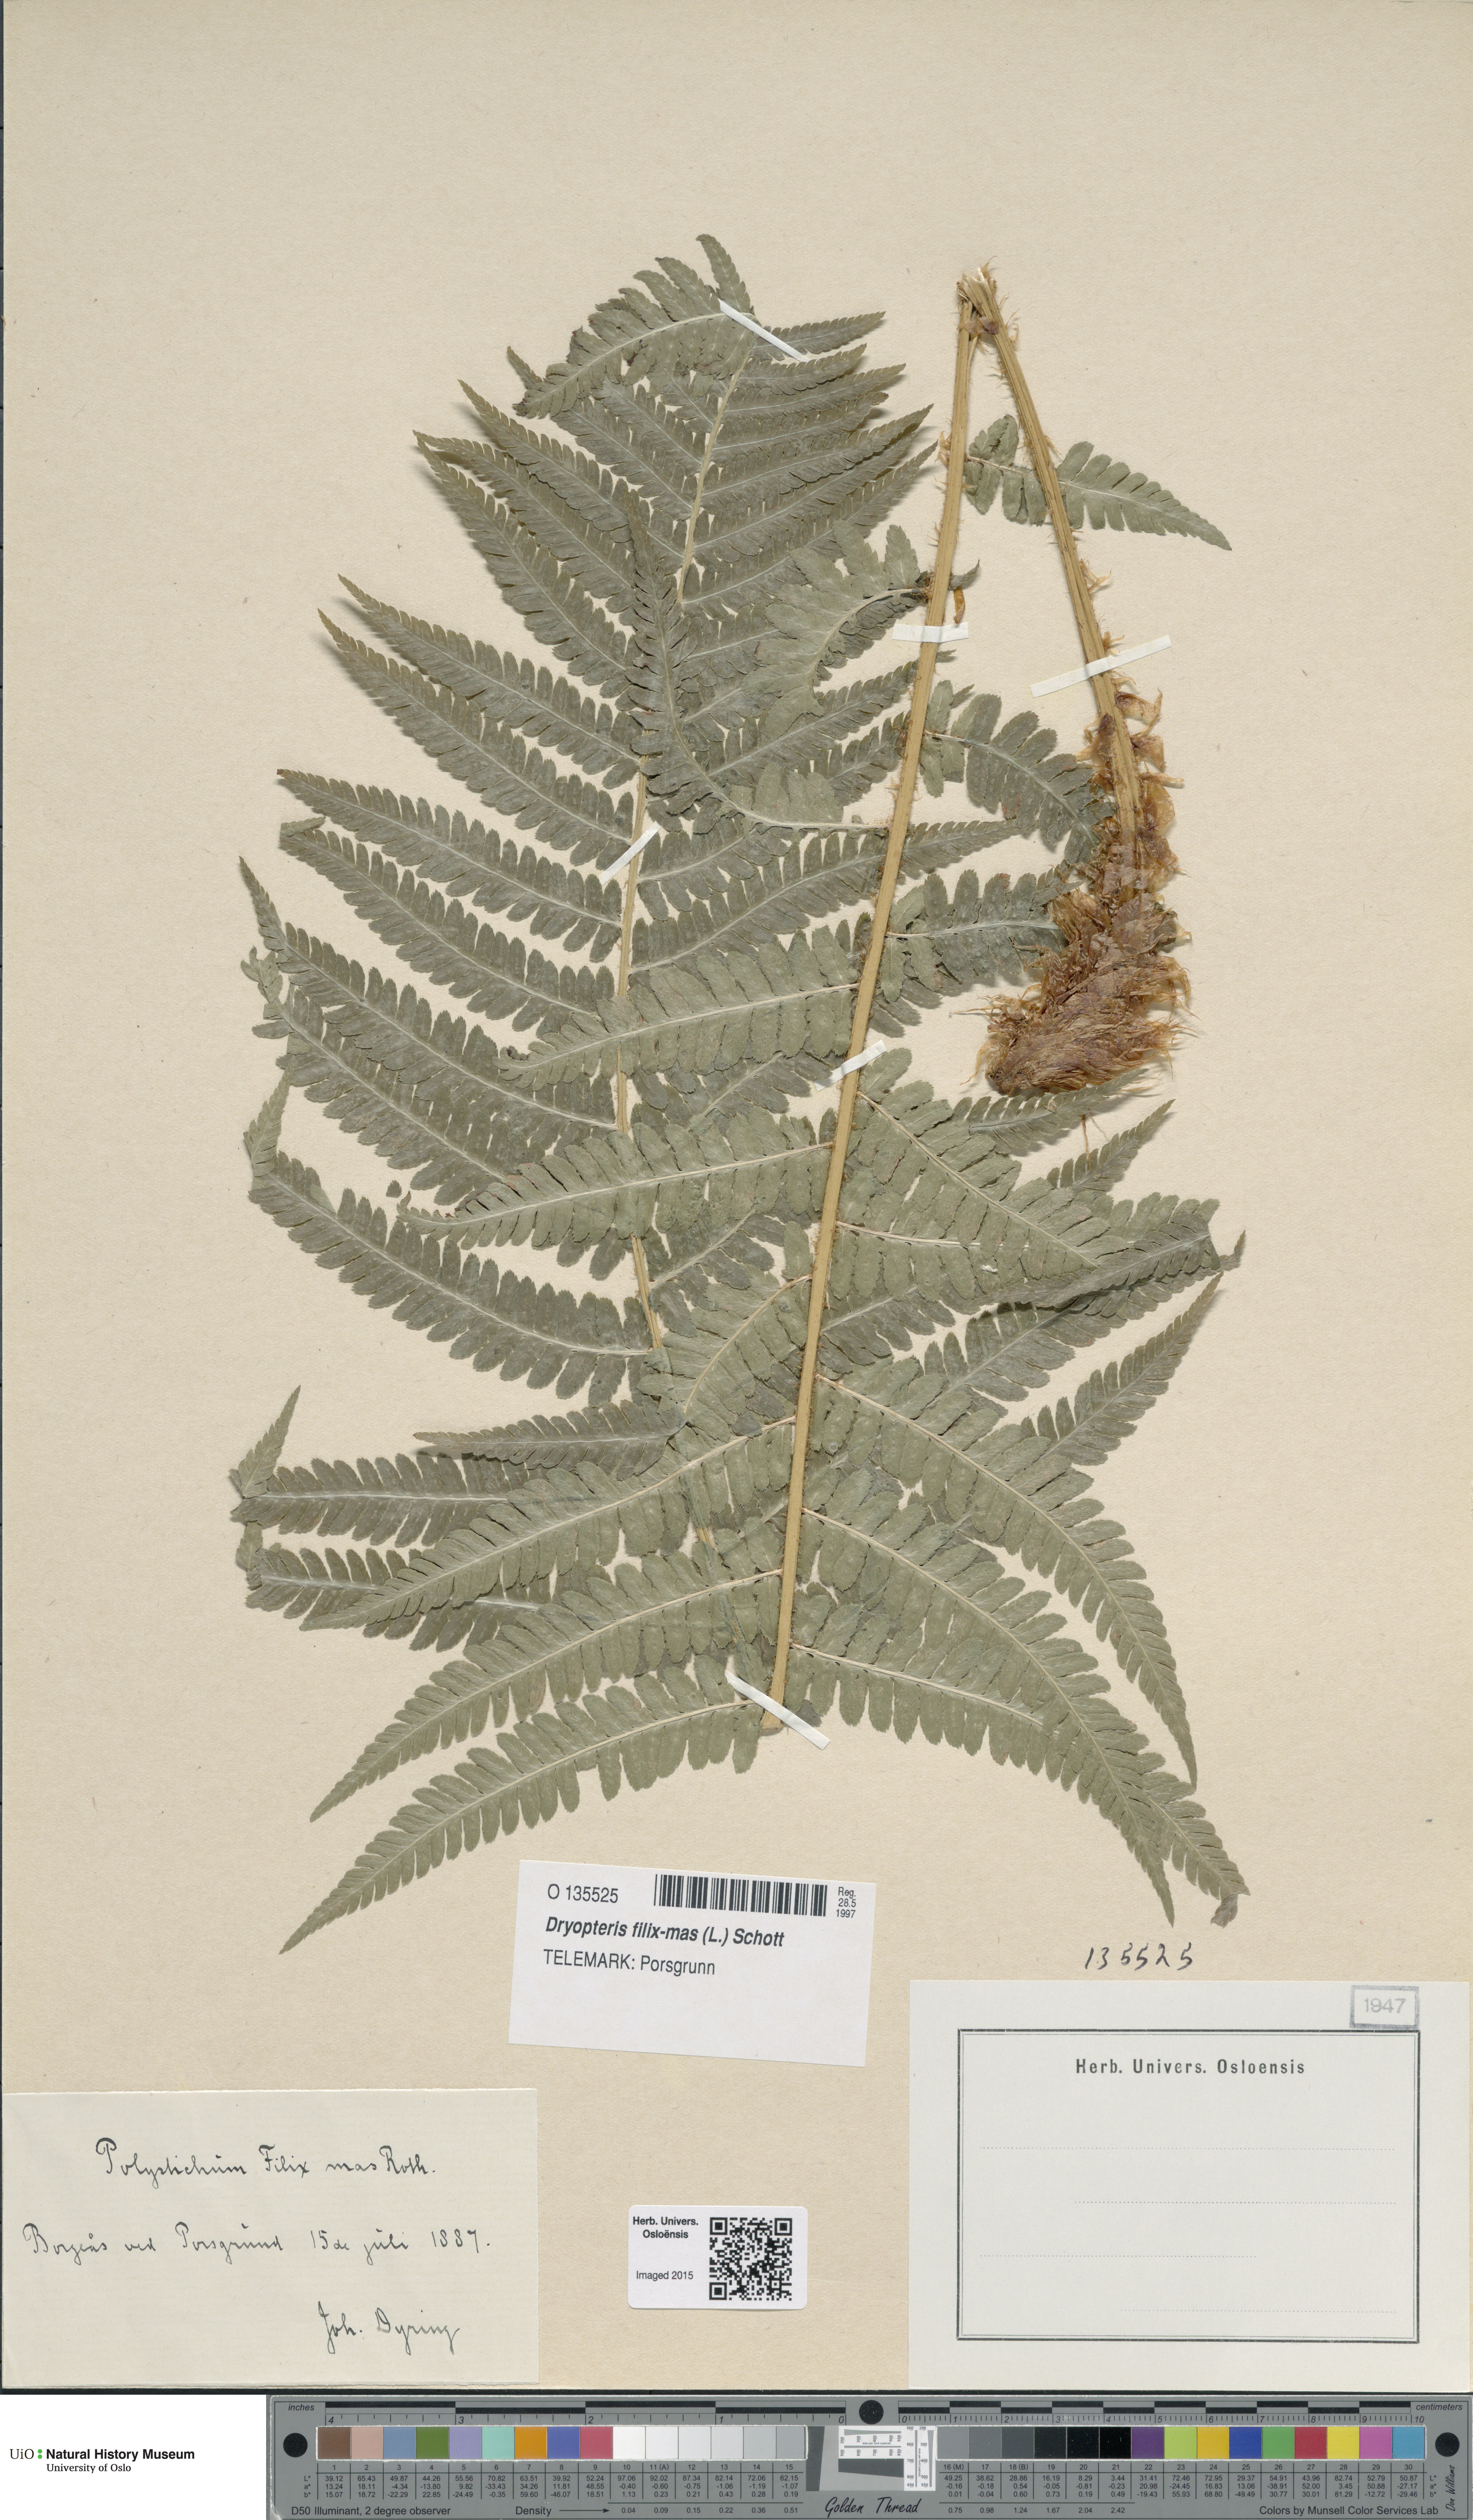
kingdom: Plantae
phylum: Tracheophyta
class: Polypodiopsida
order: Polypodiales
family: Dryopteridaceae
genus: Dryopteris
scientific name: Dryopteris filix-mas
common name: Male fern
